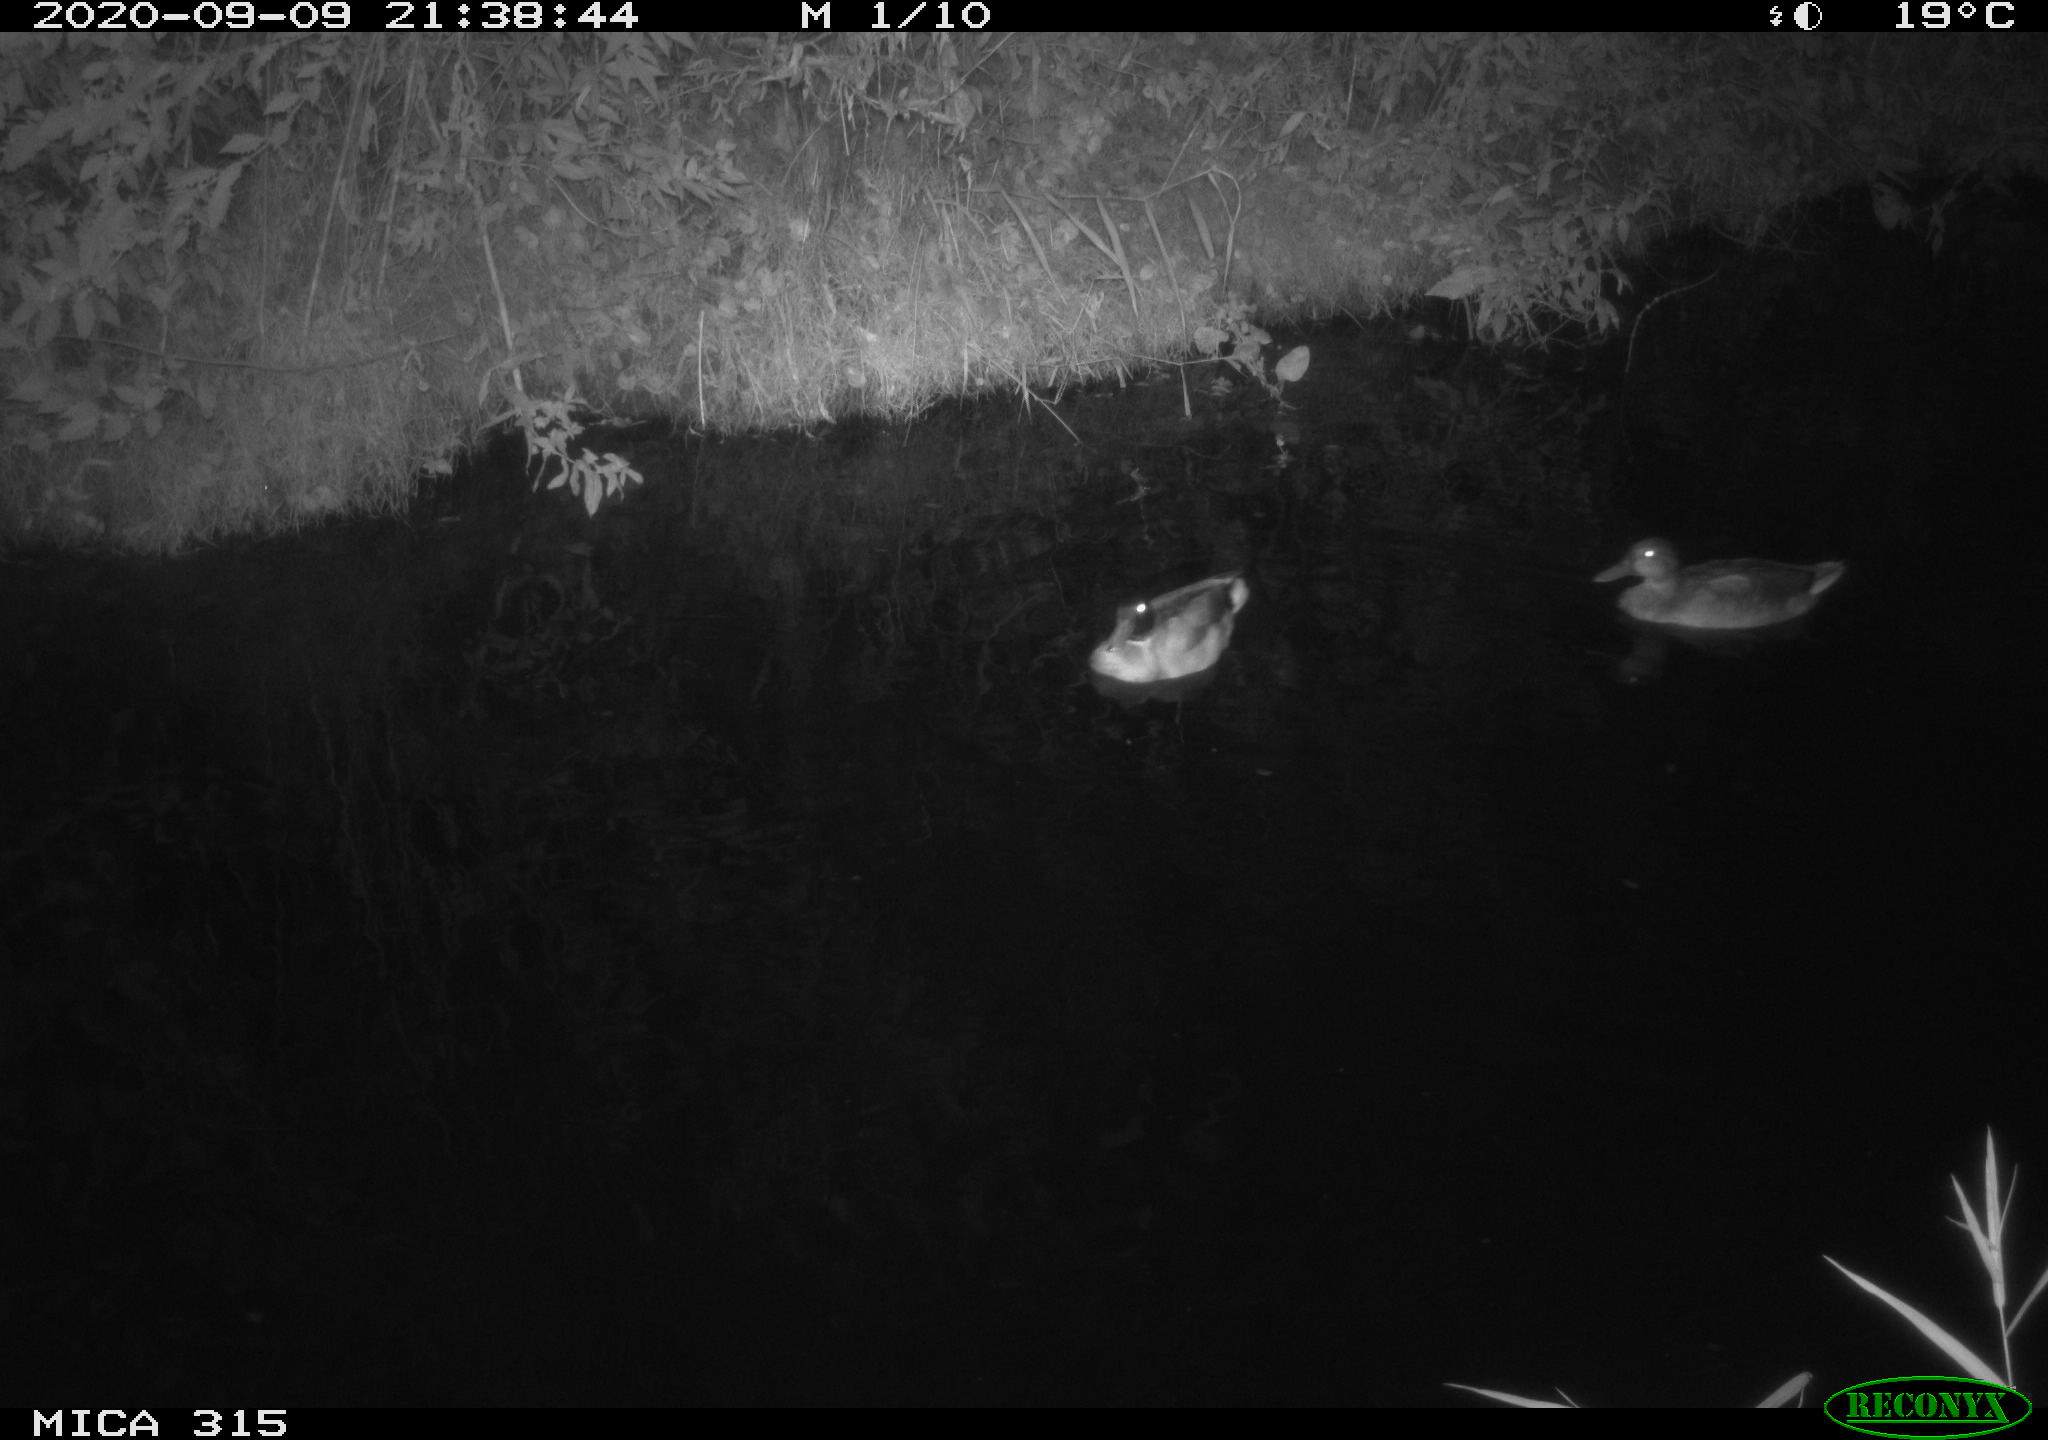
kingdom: Animalia
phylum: Chordata
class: Aves
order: Anseriformes
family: Anatidae
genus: Anas
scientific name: Anas platyrhynchos
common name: Mallard
